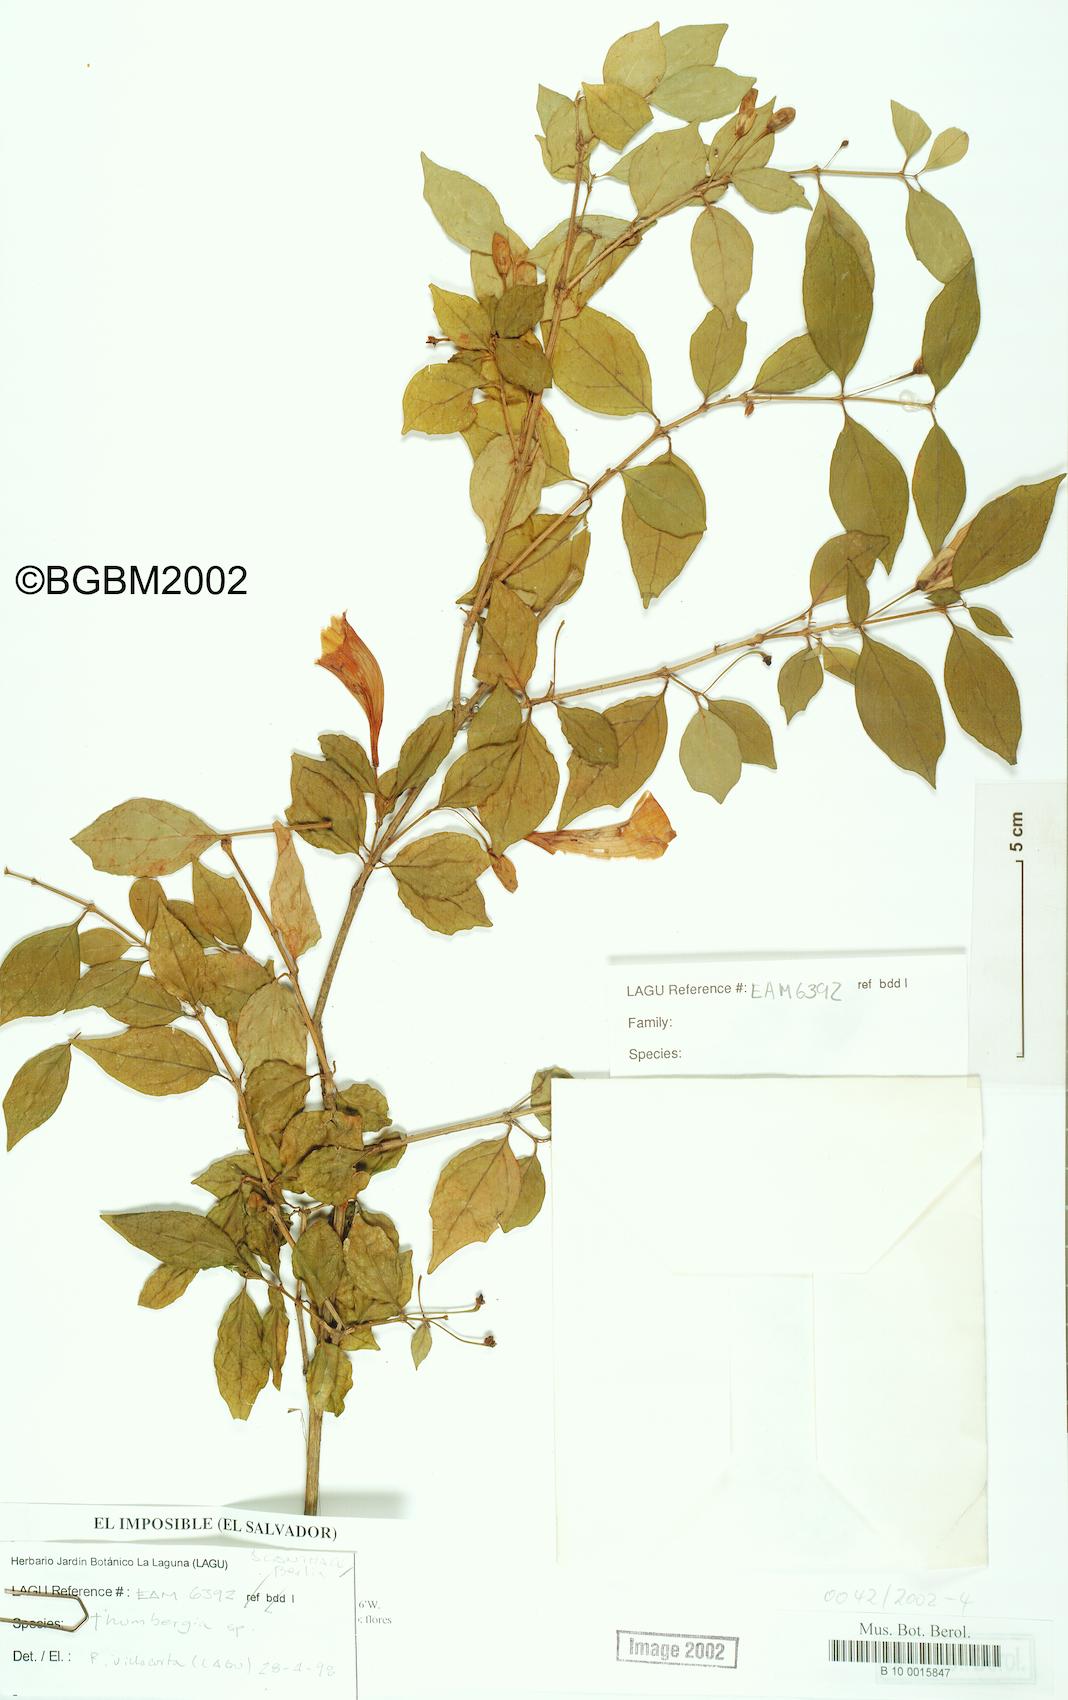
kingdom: Plantae
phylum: Tracheophyta
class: Magnoliopsida
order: Lamiales
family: Acanthaceae
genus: Thunbergia
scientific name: Thunbergia erecta
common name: Bush clockvine
